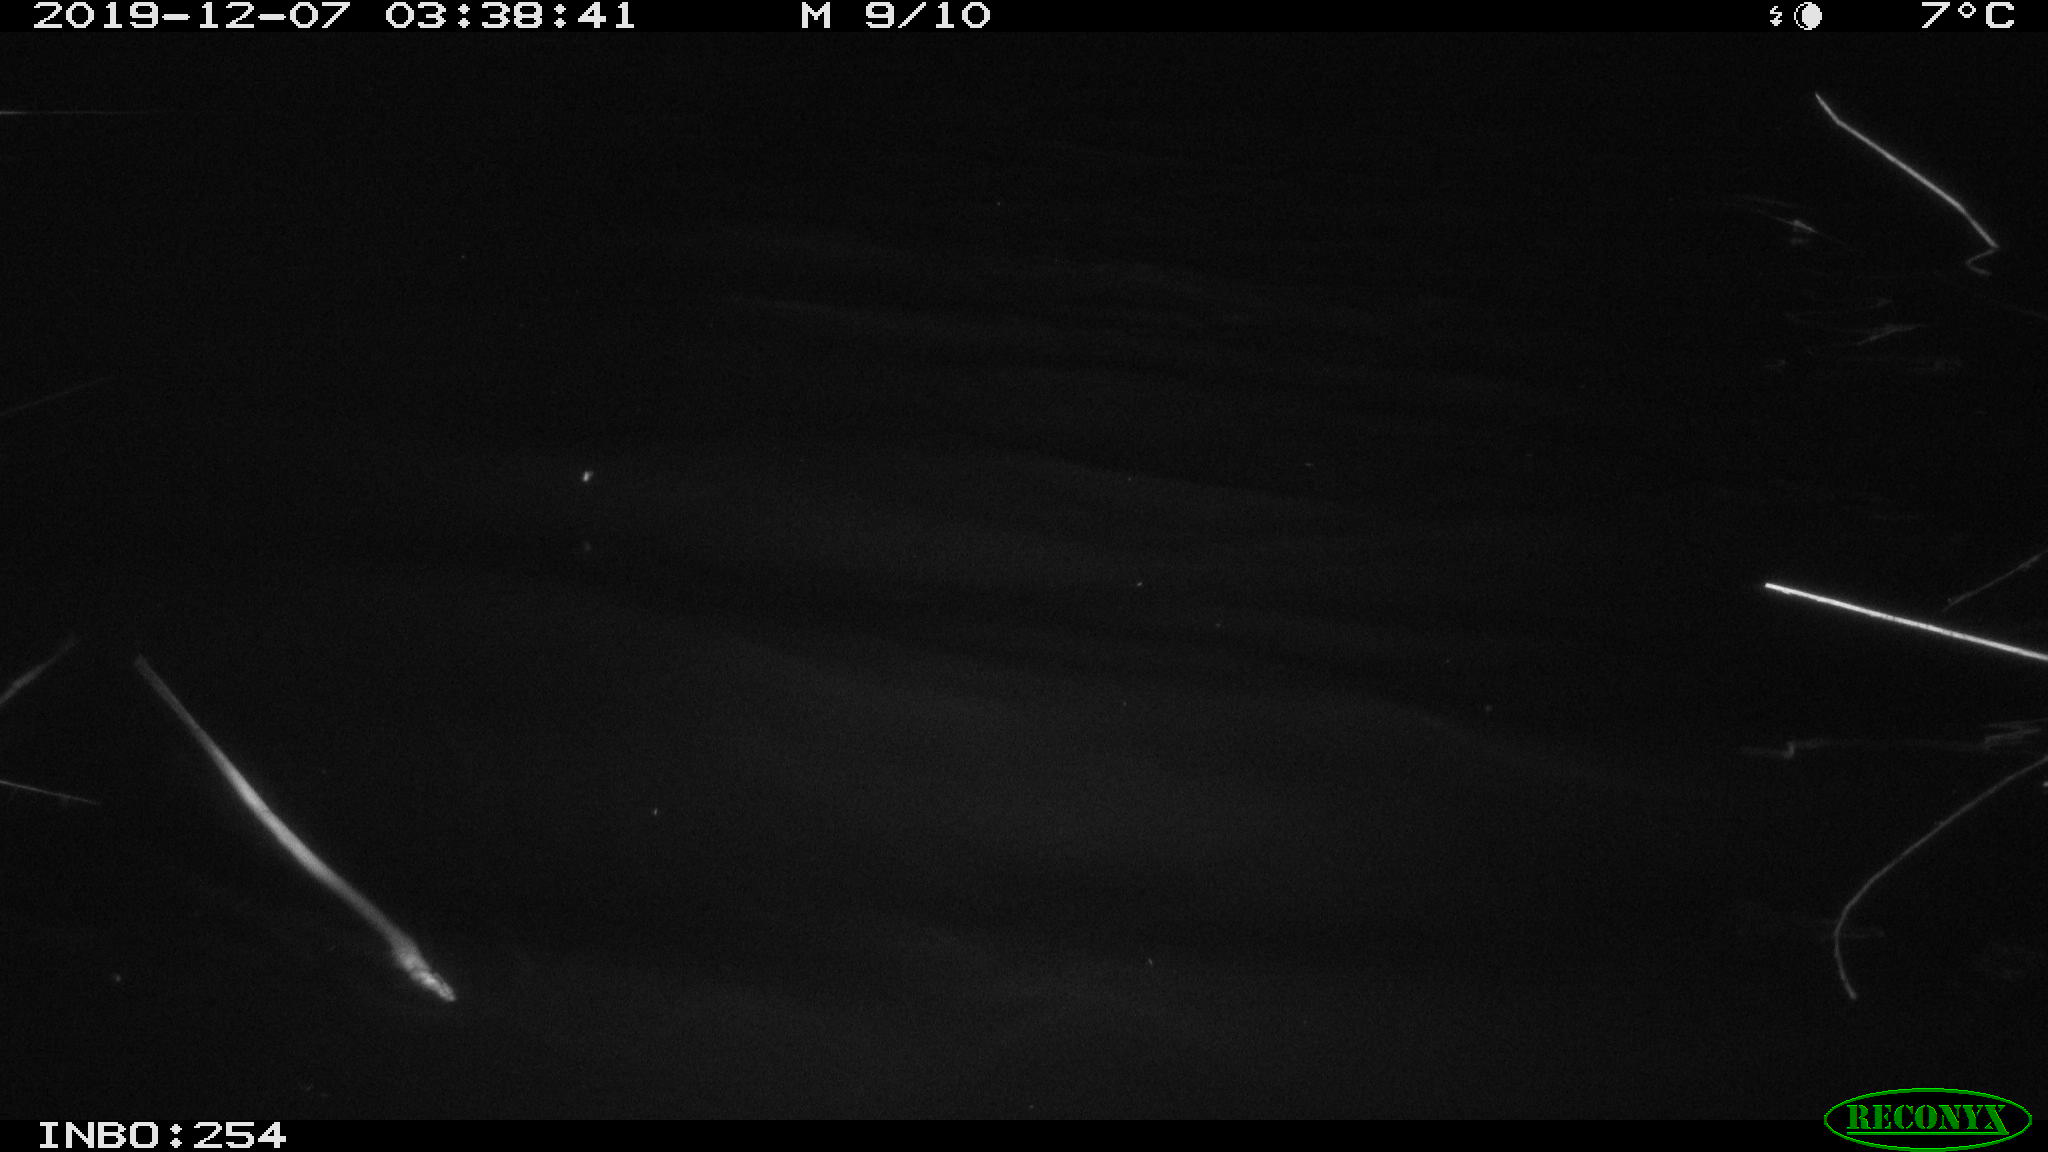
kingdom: Animalia
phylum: Chordata
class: Aves
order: Anseriformes
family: Anatidae
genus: Anas
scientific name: Anas platyrhynchos
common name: Mallard
